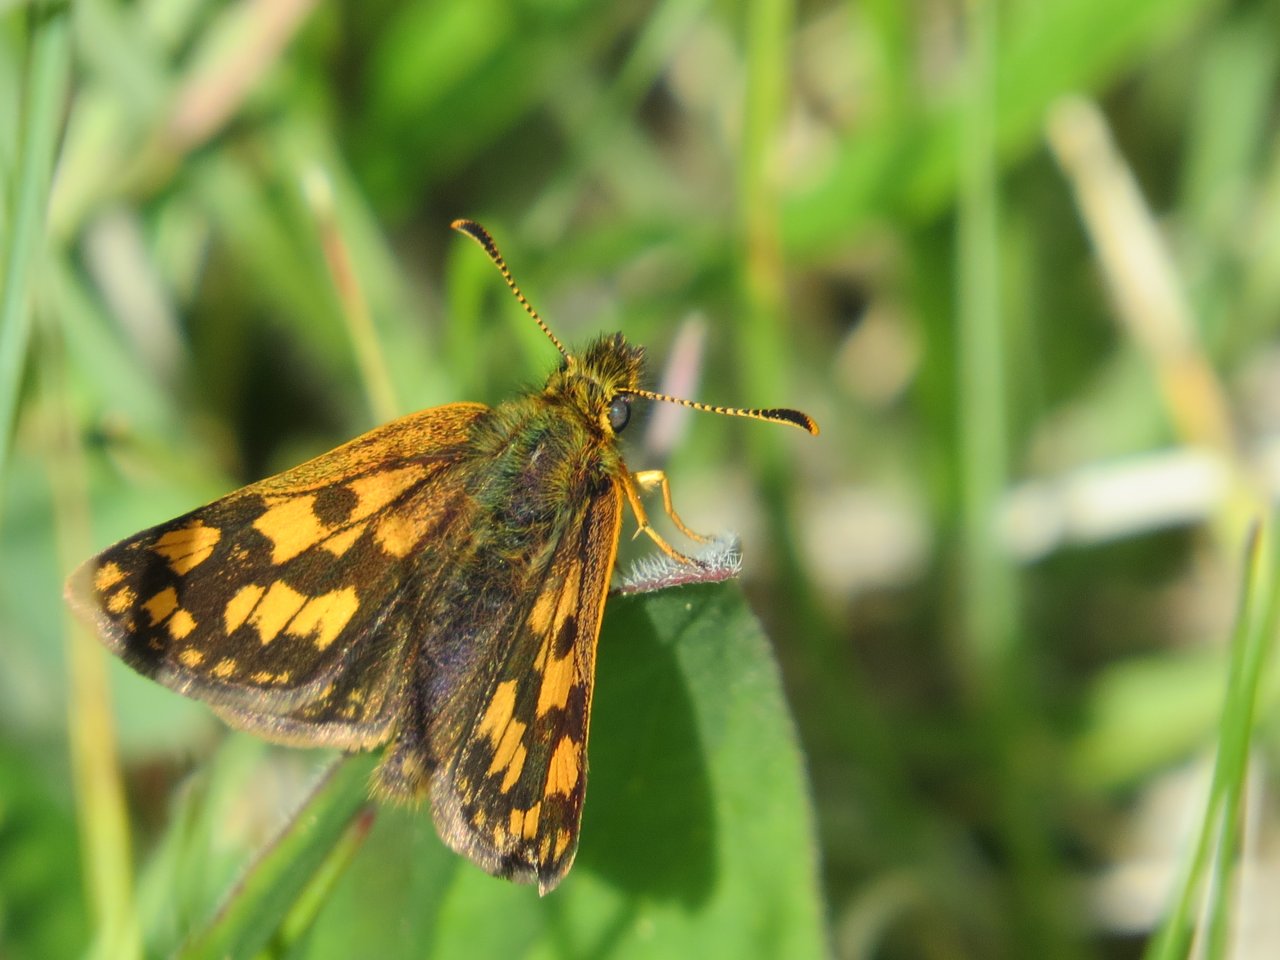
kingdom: Animalia
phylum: Arthropoda
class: Insecta
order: Lepidoptera
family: Hesperiidae
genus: Carterocephalus
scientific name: Carterocephalus palaemon
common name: Chequered Skipper
